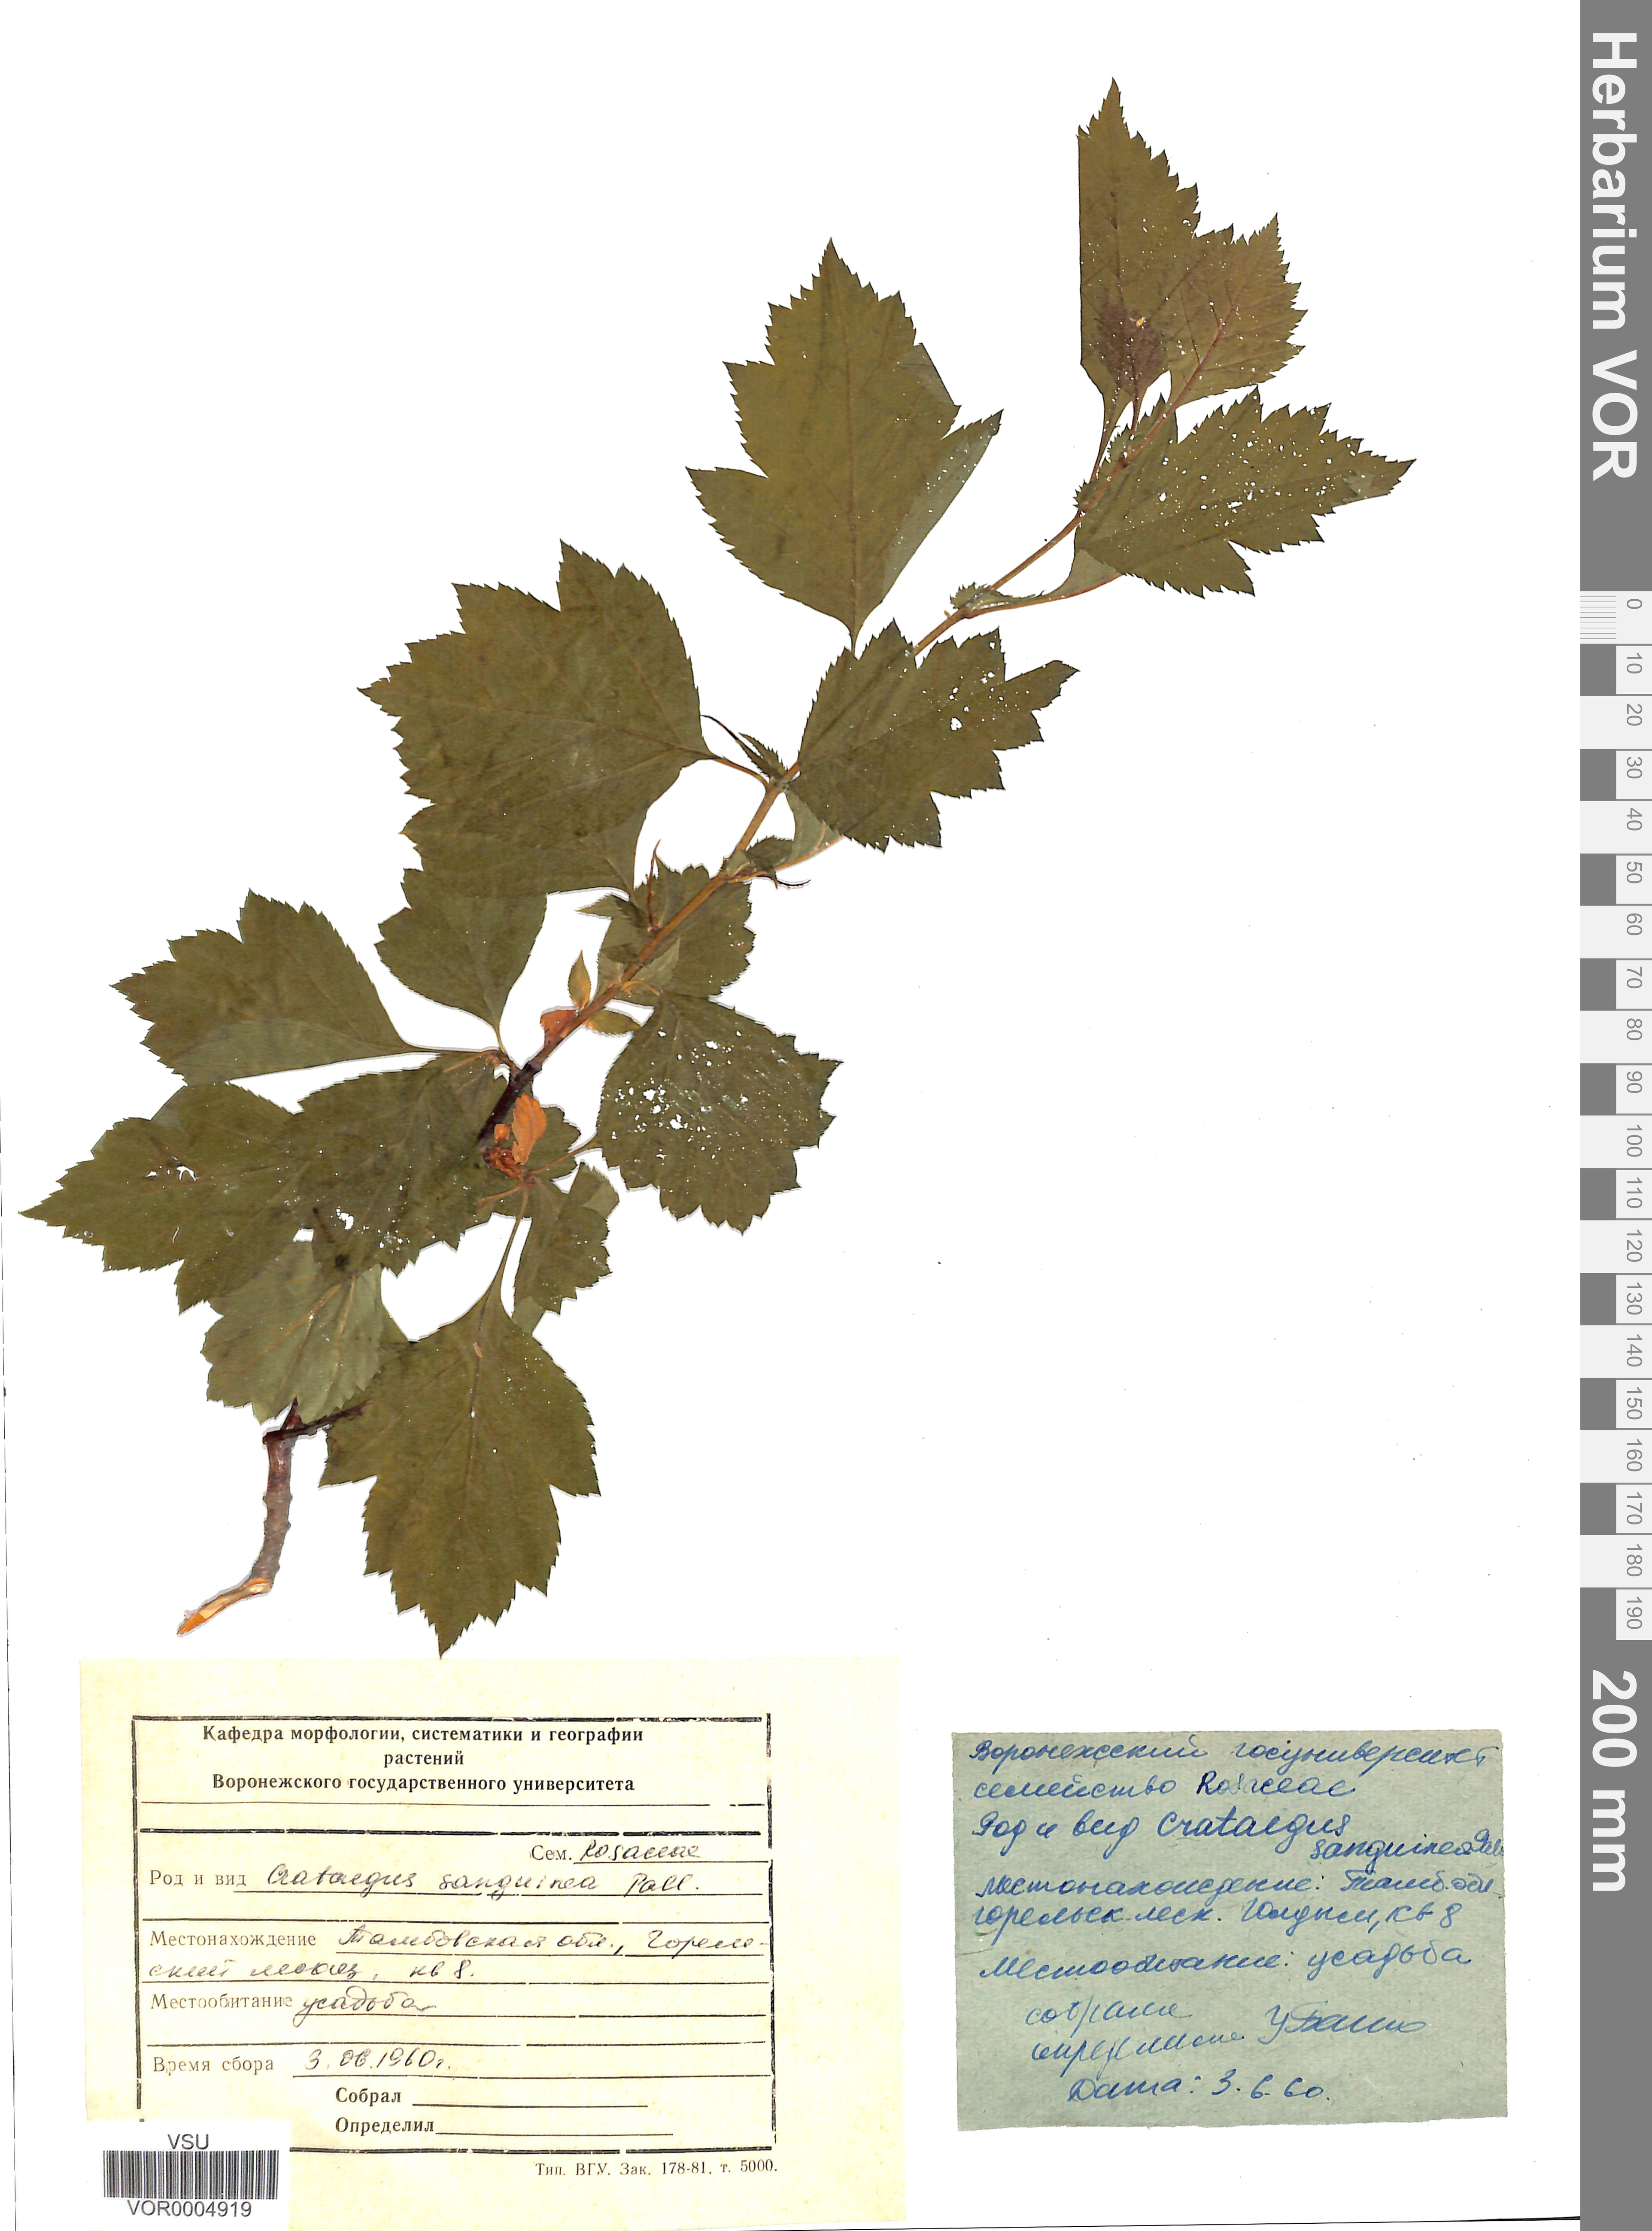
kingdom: Plantae
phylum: Tracheophyta
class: Magnoliopsida
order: Rosales
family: Rosaceae
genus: Crataegus
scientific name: Crataegus sanguinea
